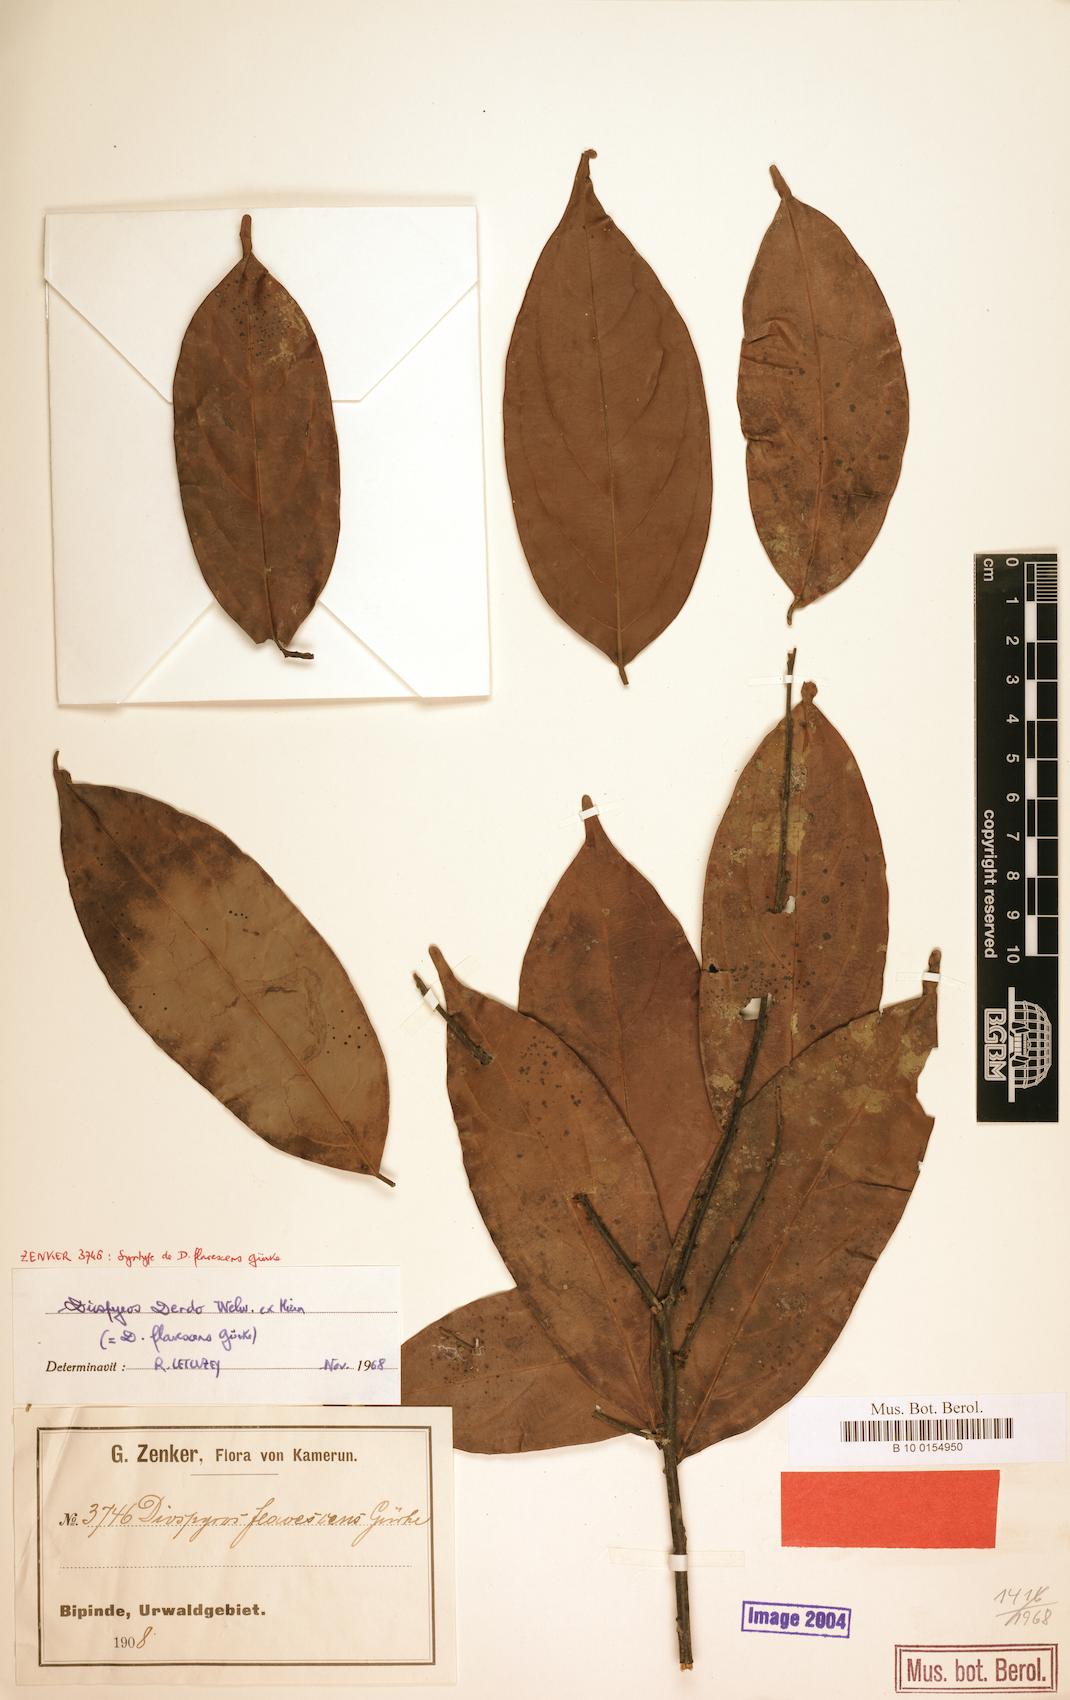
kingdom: Plantae
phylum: Tracheophyta
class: Magnoliopsida
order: Ericales
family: Ebenaceae
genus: Diospyros
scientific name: Diospyros dendo
